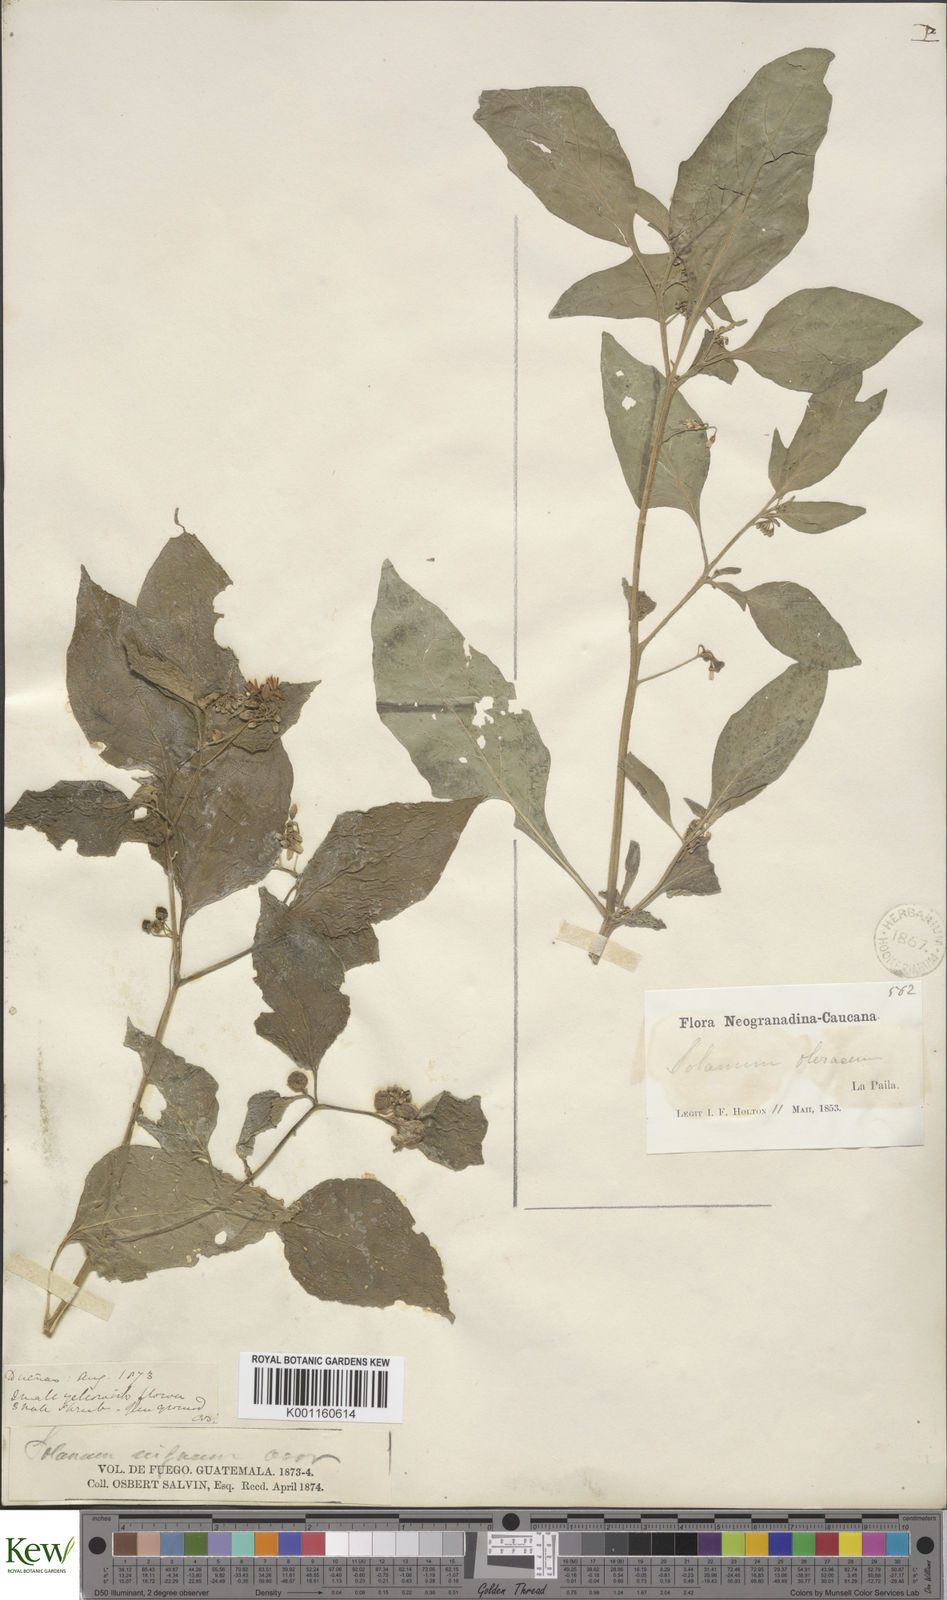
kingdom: Plantae
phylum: Tracheophyta
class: Magnoliopsida
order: Solanales
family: Solanaceae
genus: Solanum
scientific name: Solanum americanum
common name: American black nightshade
